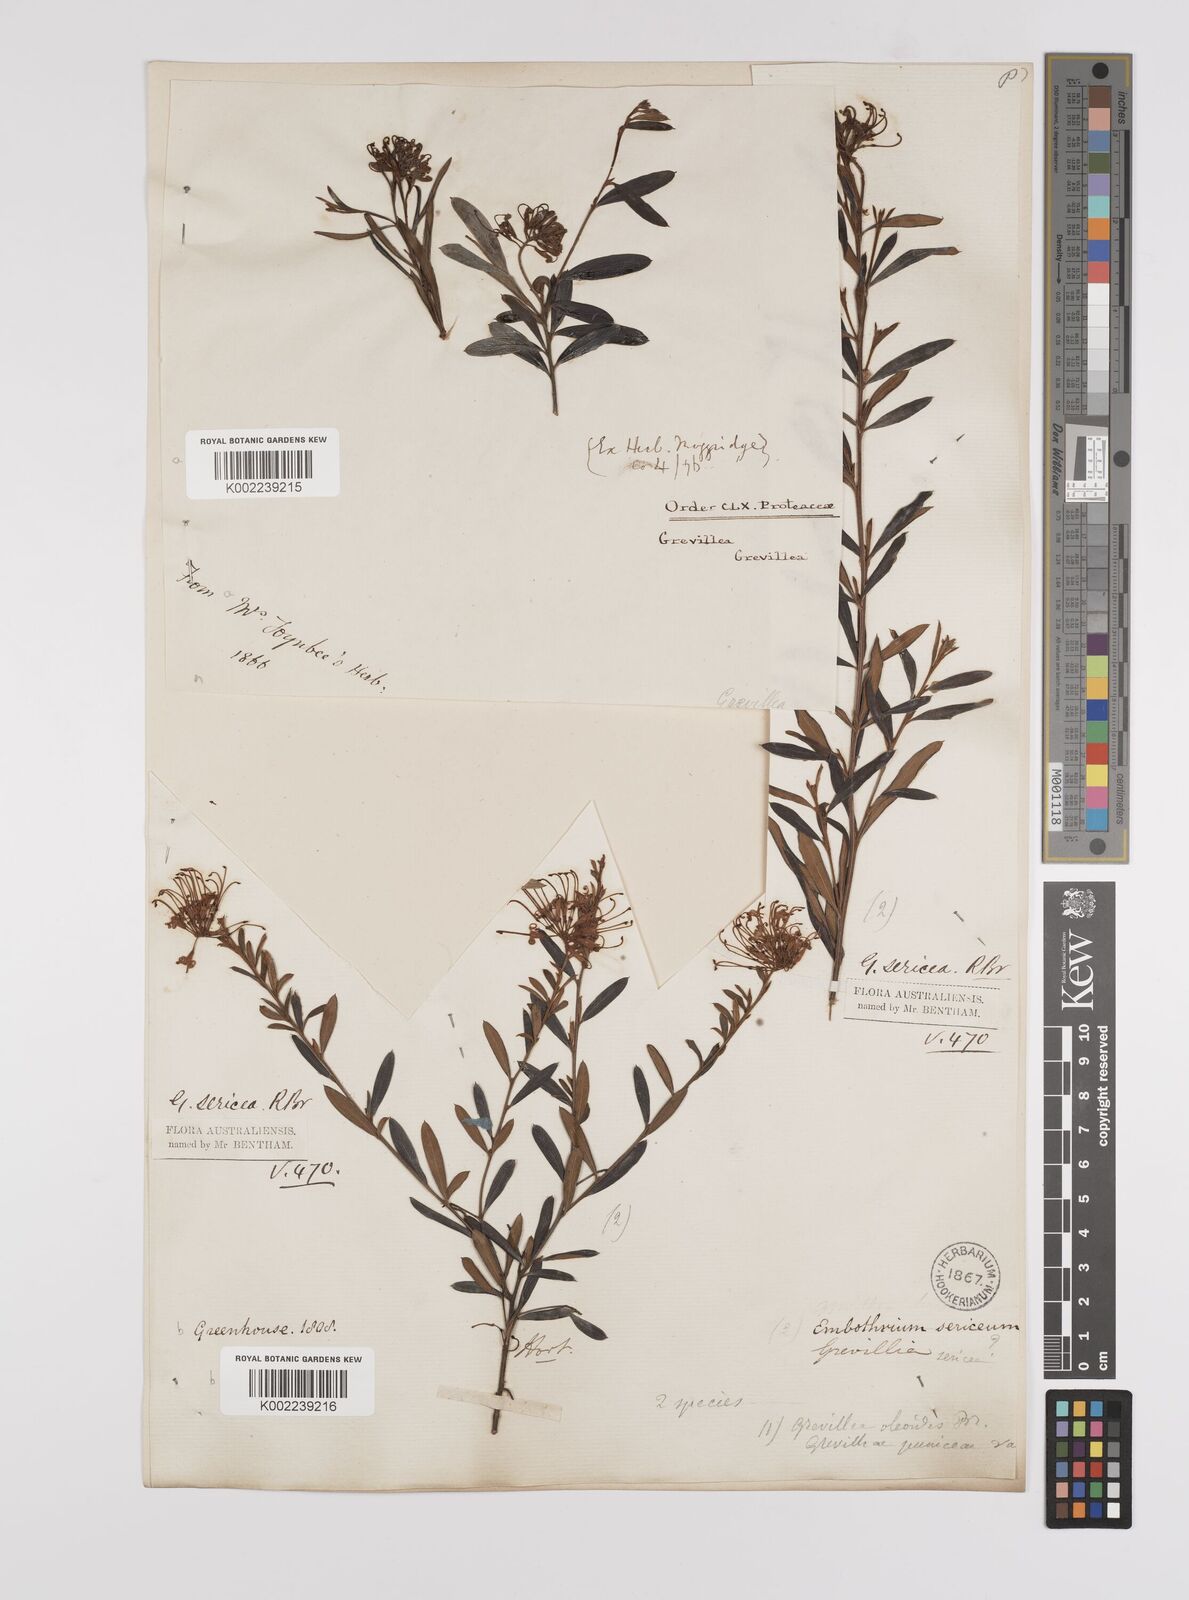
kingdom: Plantae
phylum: Tracheophyta
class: Magnoliopsida
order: Proteales
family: Proteaceae
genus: Grevillea
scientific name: Grevillea sericea
